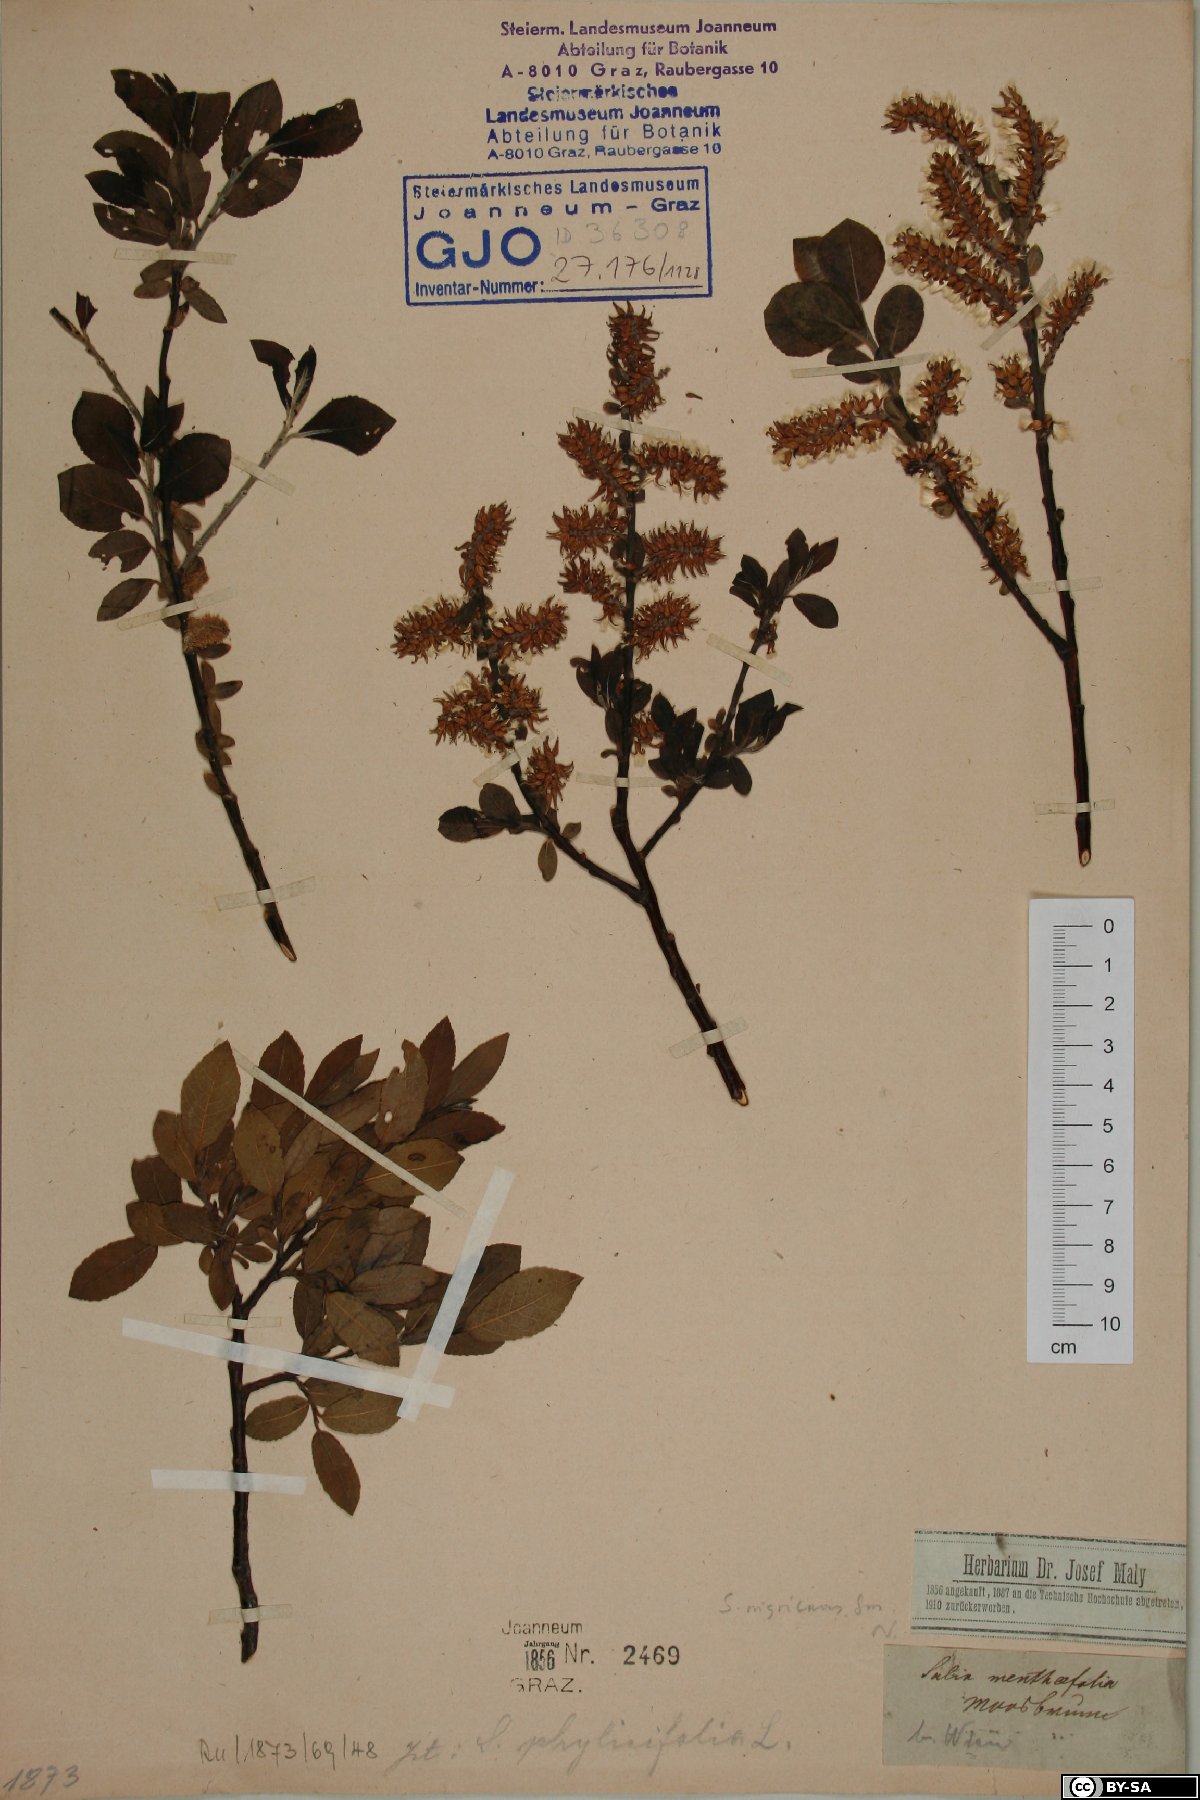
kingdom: Plantae
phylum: Tracheophyta
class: Magnoliopsida
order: Malpighiales
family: Salicaceae
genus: Salix
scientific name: Salix myrsinifolia
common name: Dark-leaved willow
